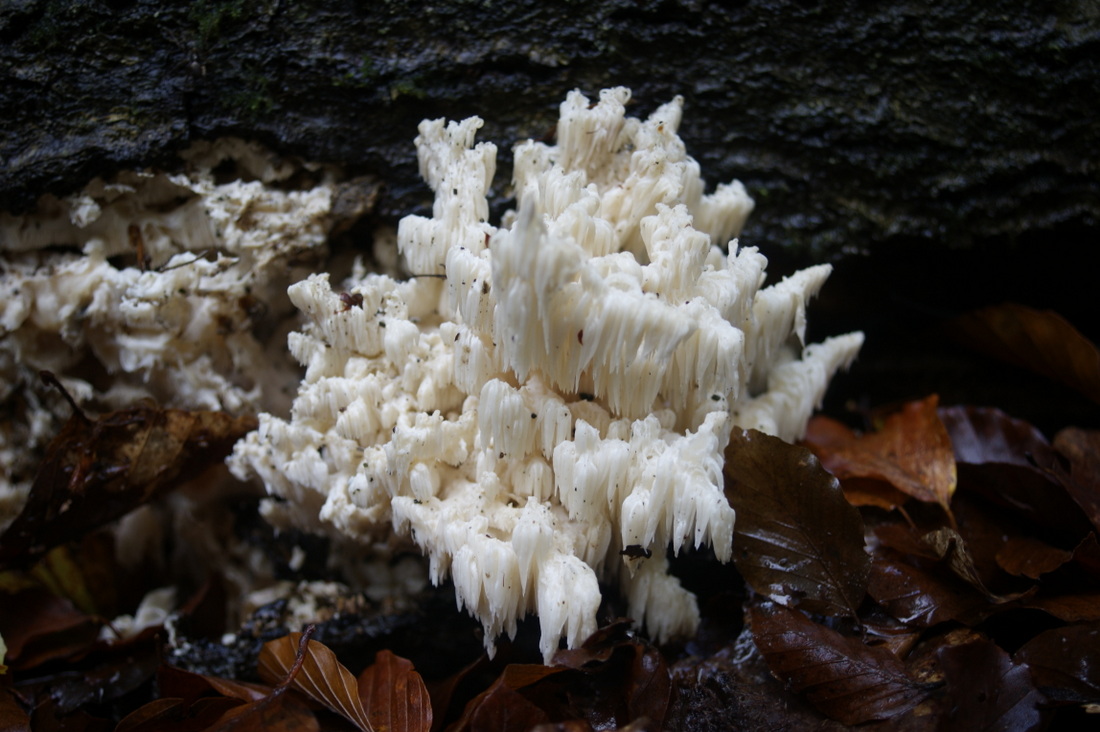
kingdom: Fungi
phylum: Basidiomycota
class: Agaricomycetes
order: Russulales
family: Hericiaceae
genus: Hericium
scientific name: Hericium coralloides
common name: koralpigsvamp
